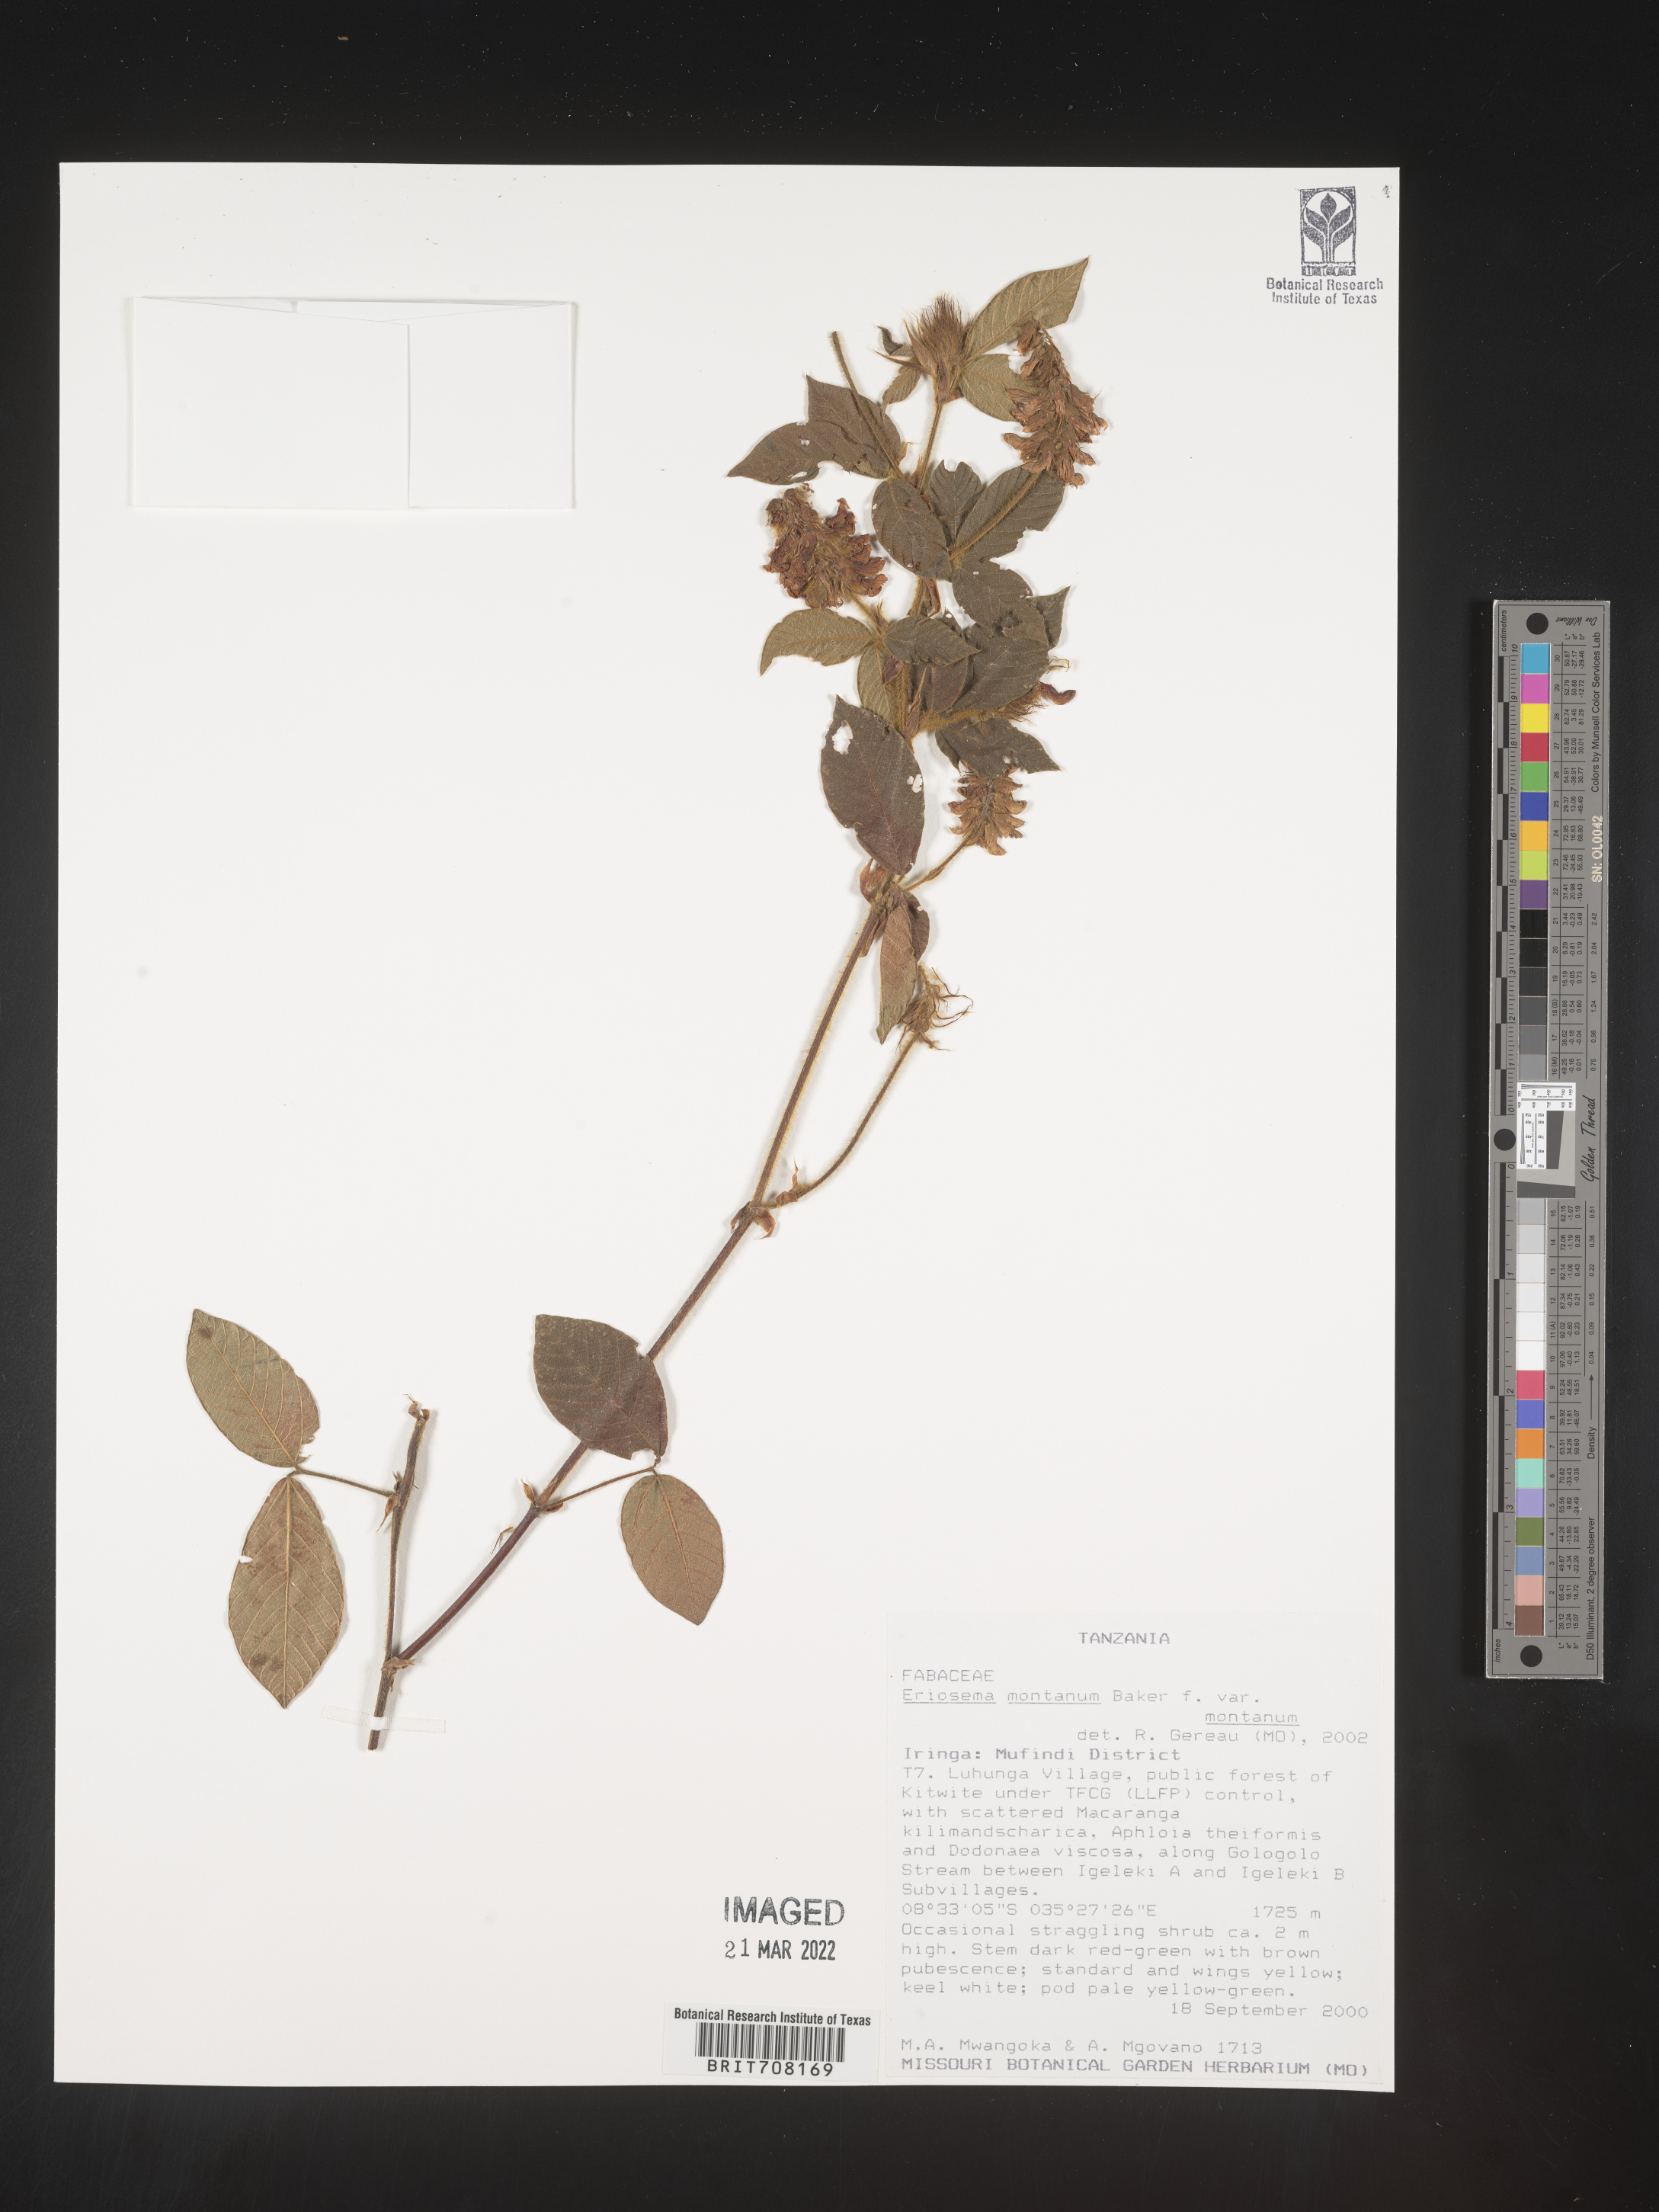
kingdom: Plantae
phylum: Tracheophyta
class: Magnoliopsida
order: Fabales
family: Fabaceae
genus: Eriosema
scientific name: Eriosema
